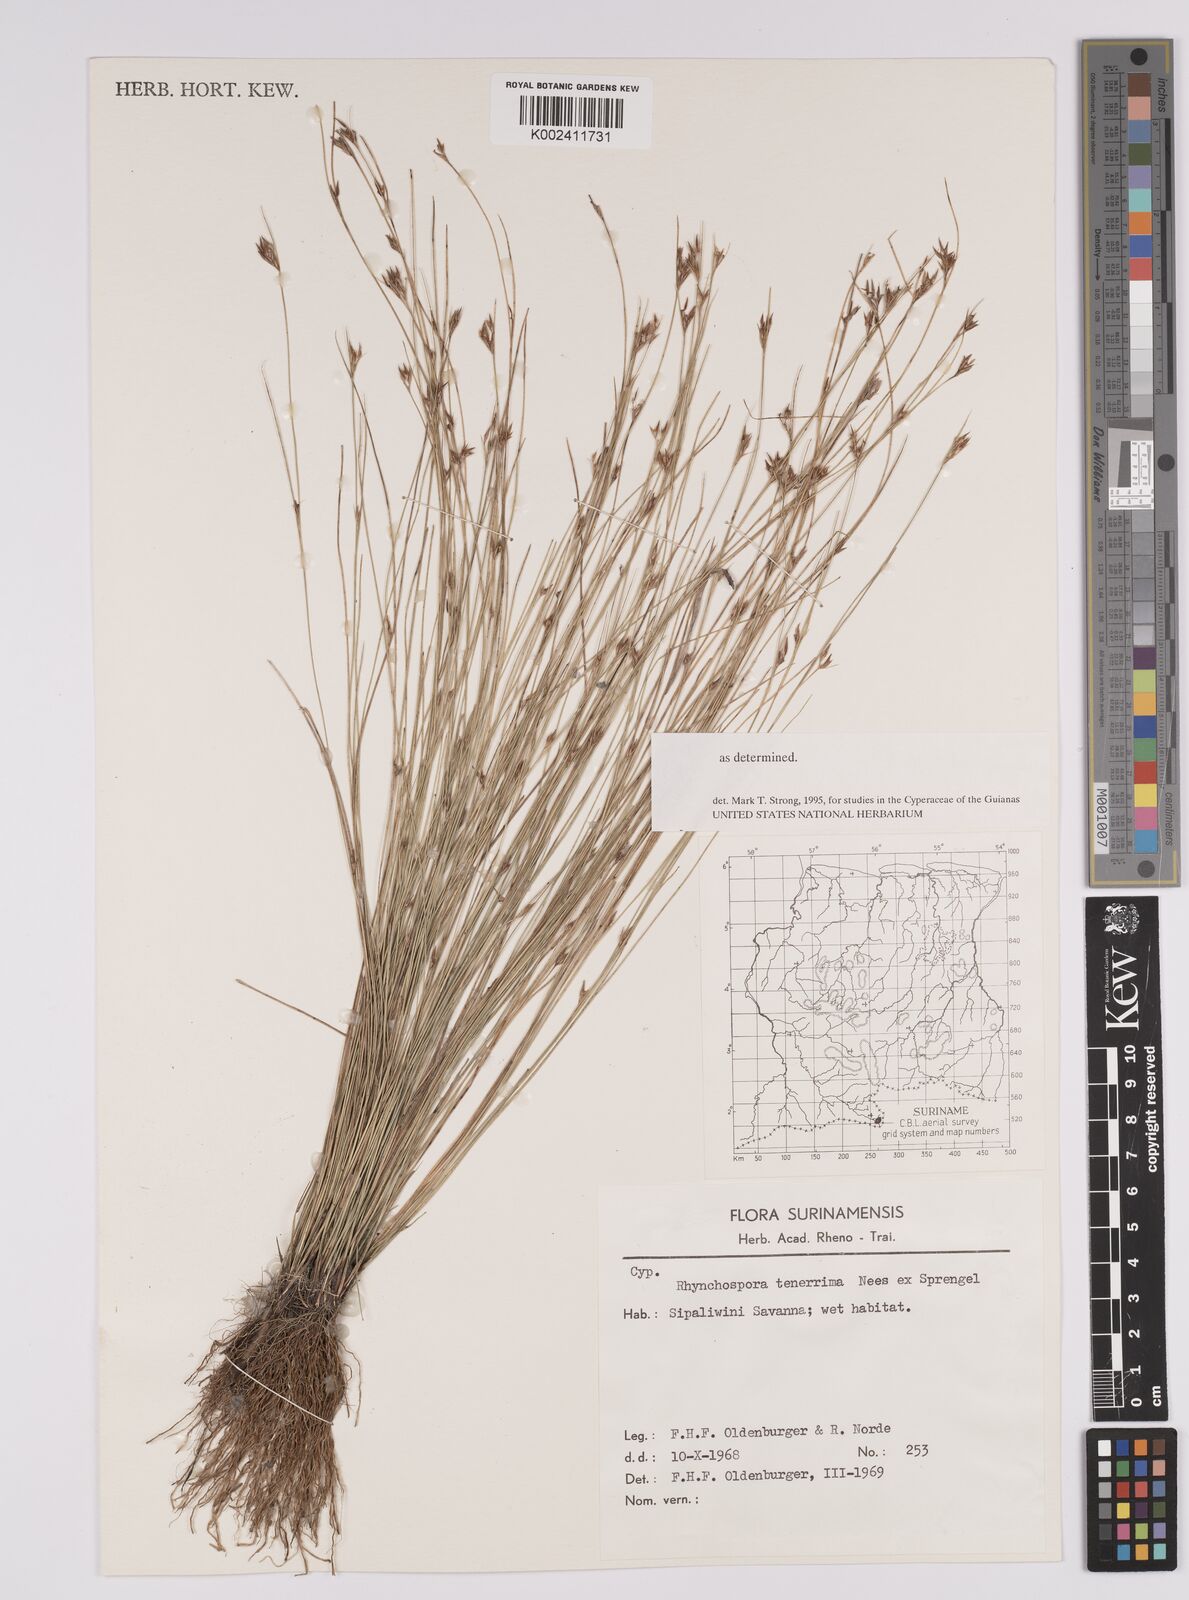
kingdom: Plantae
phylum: Tracheophyta
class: Liliopsida
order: Poales
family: Cyperaceae
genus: Rhynchospora
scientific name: Rhynchospora tenerrima
